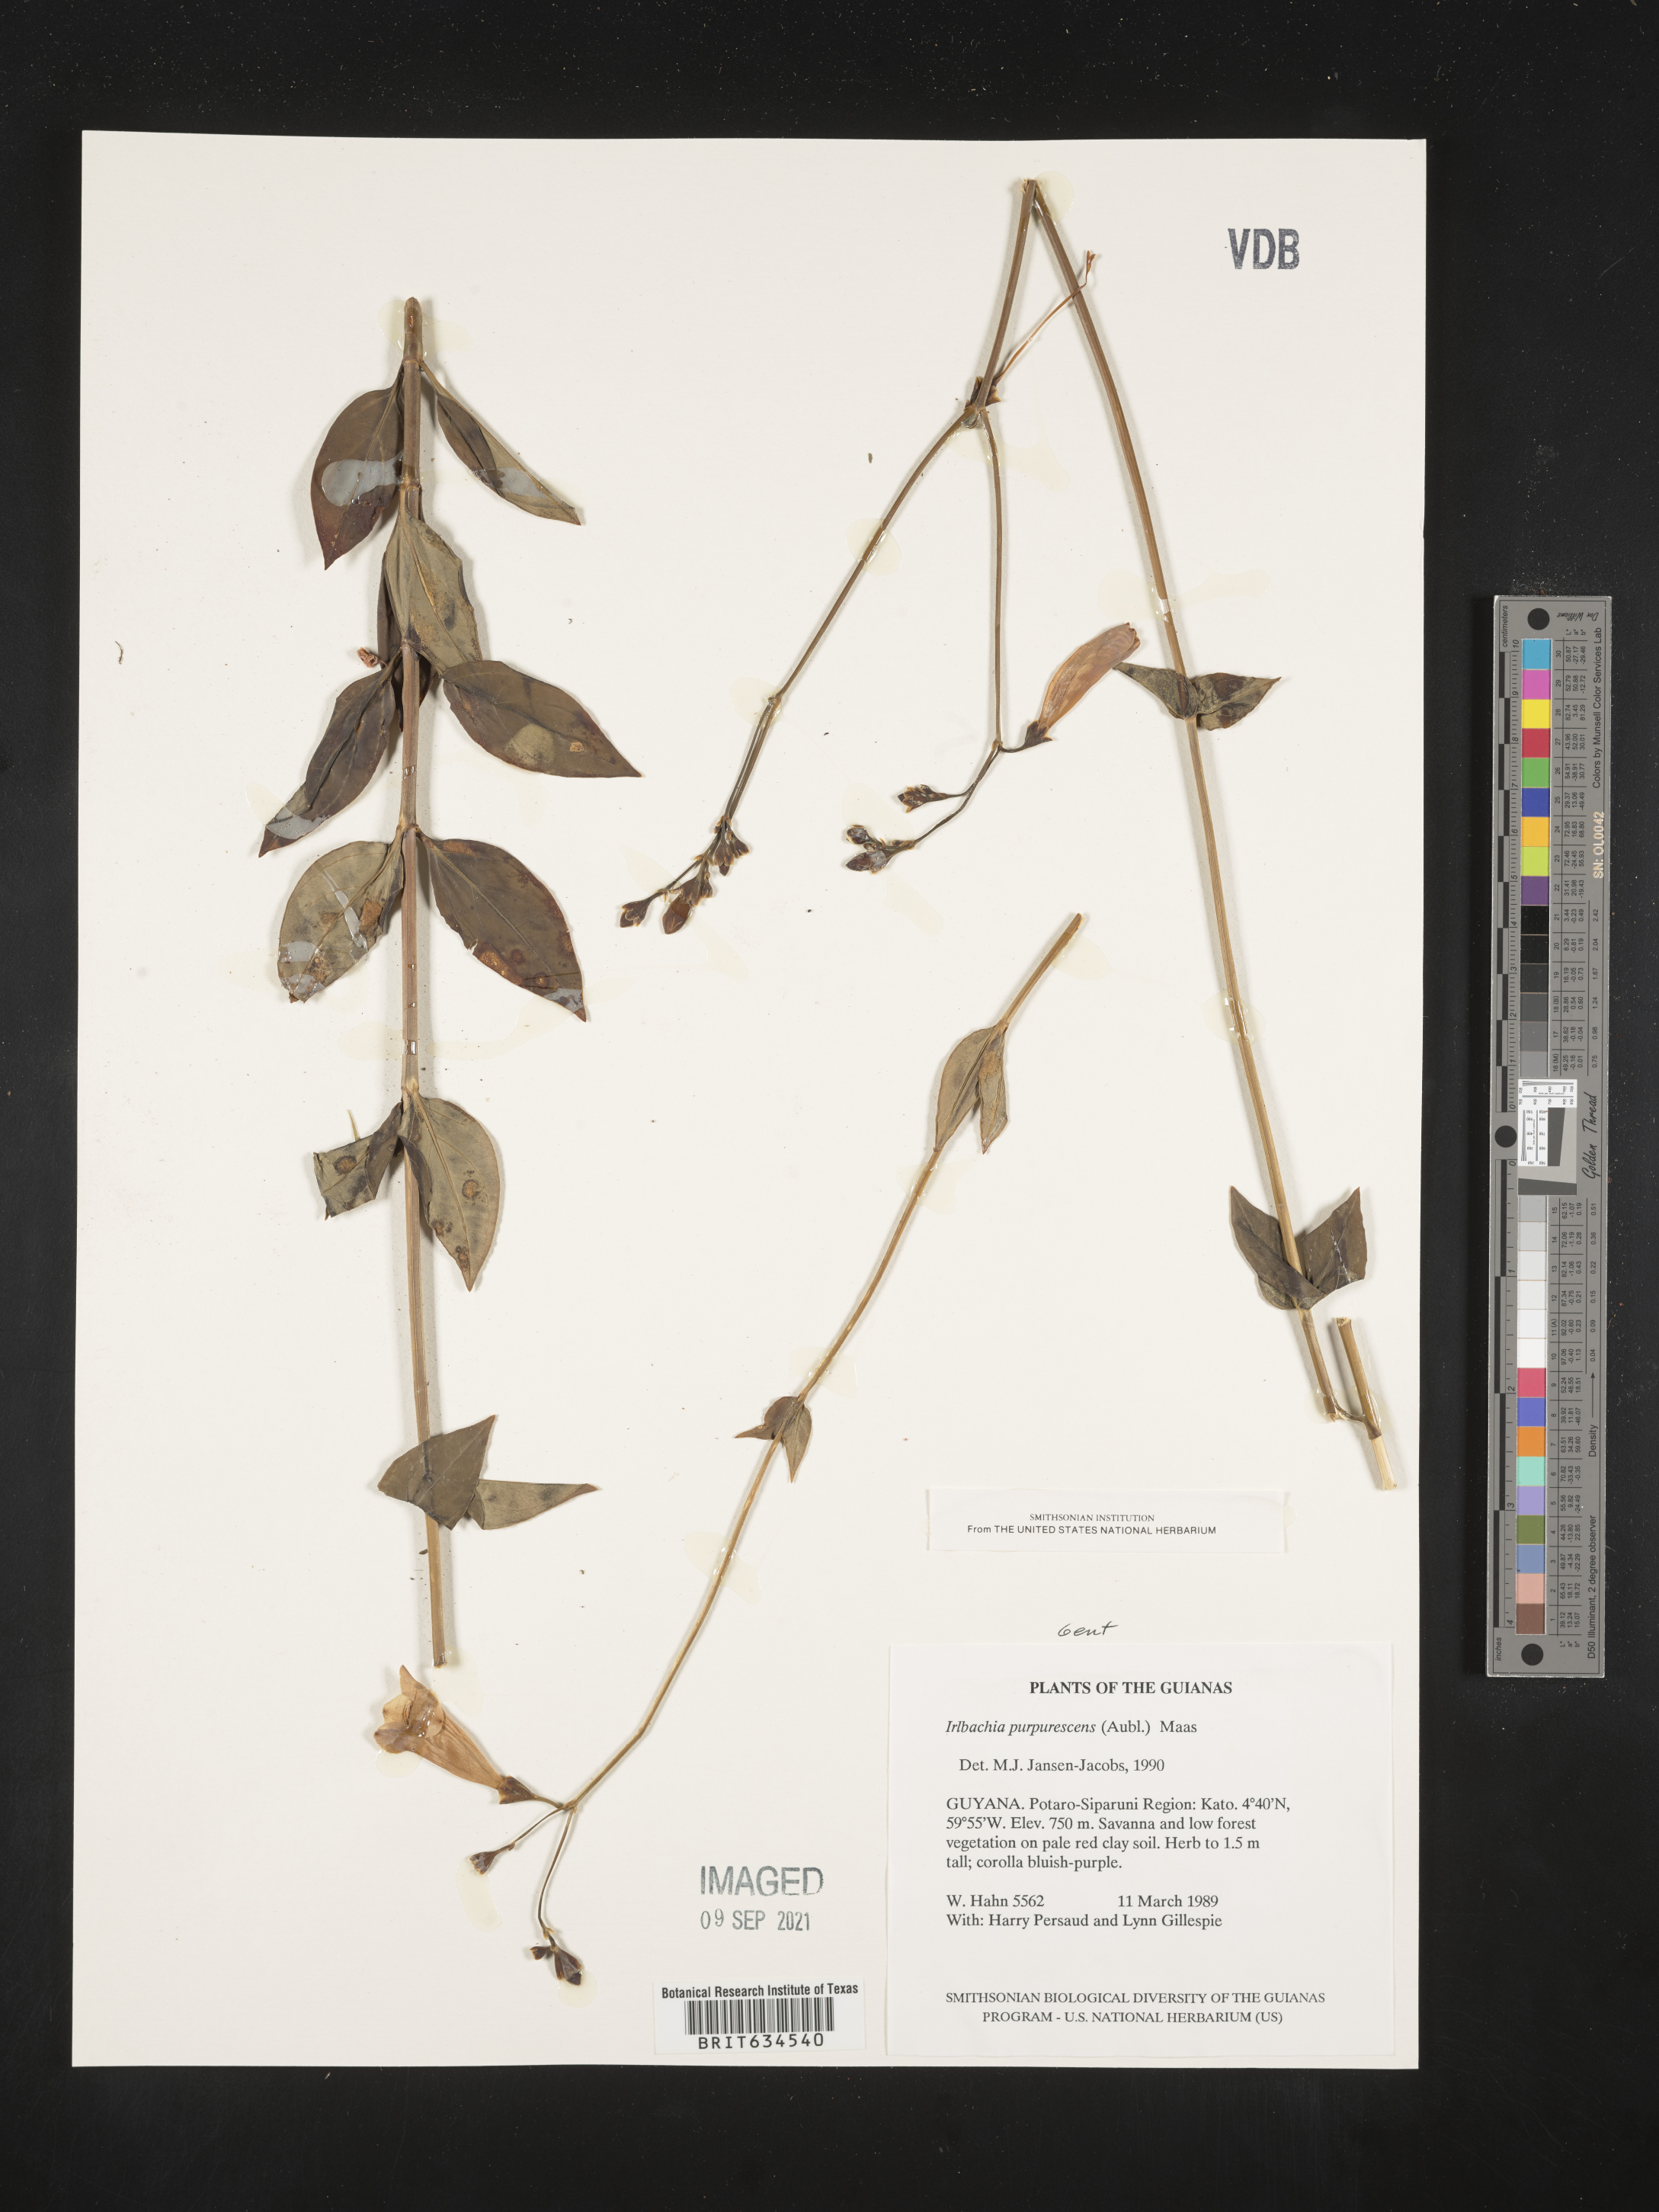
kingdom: Plantae
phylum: Tracheophyta
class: Magnoliopsida
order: Gentianales
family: Gentianaceae
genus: Irlbachia
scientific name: Irlbachia
